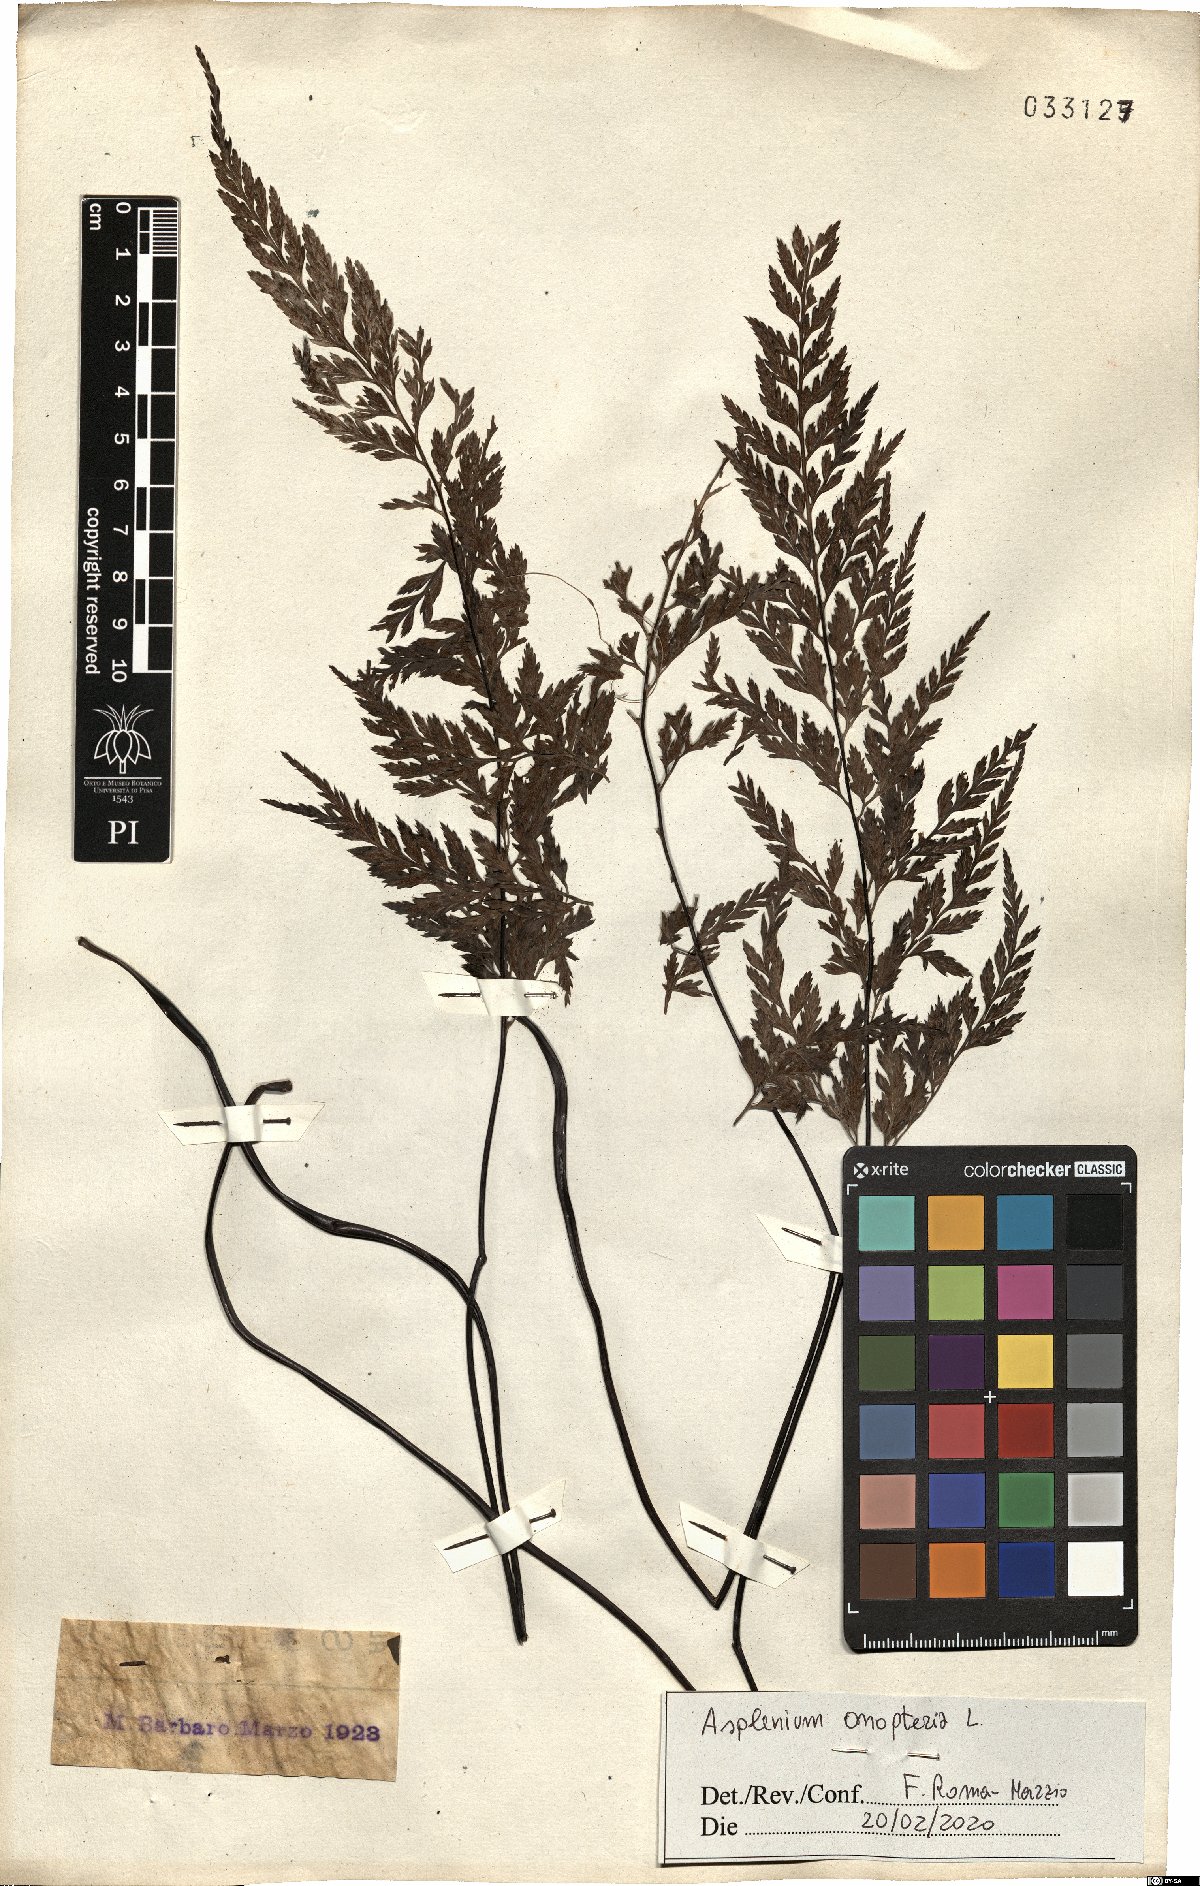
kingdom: Plantae
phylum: Tracheophyta
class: Polypodiopsida
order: Polypodiales
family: Aspleniaceae
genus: Asplenium
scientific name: Asplenium onopteris
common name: Irish spleenwort
